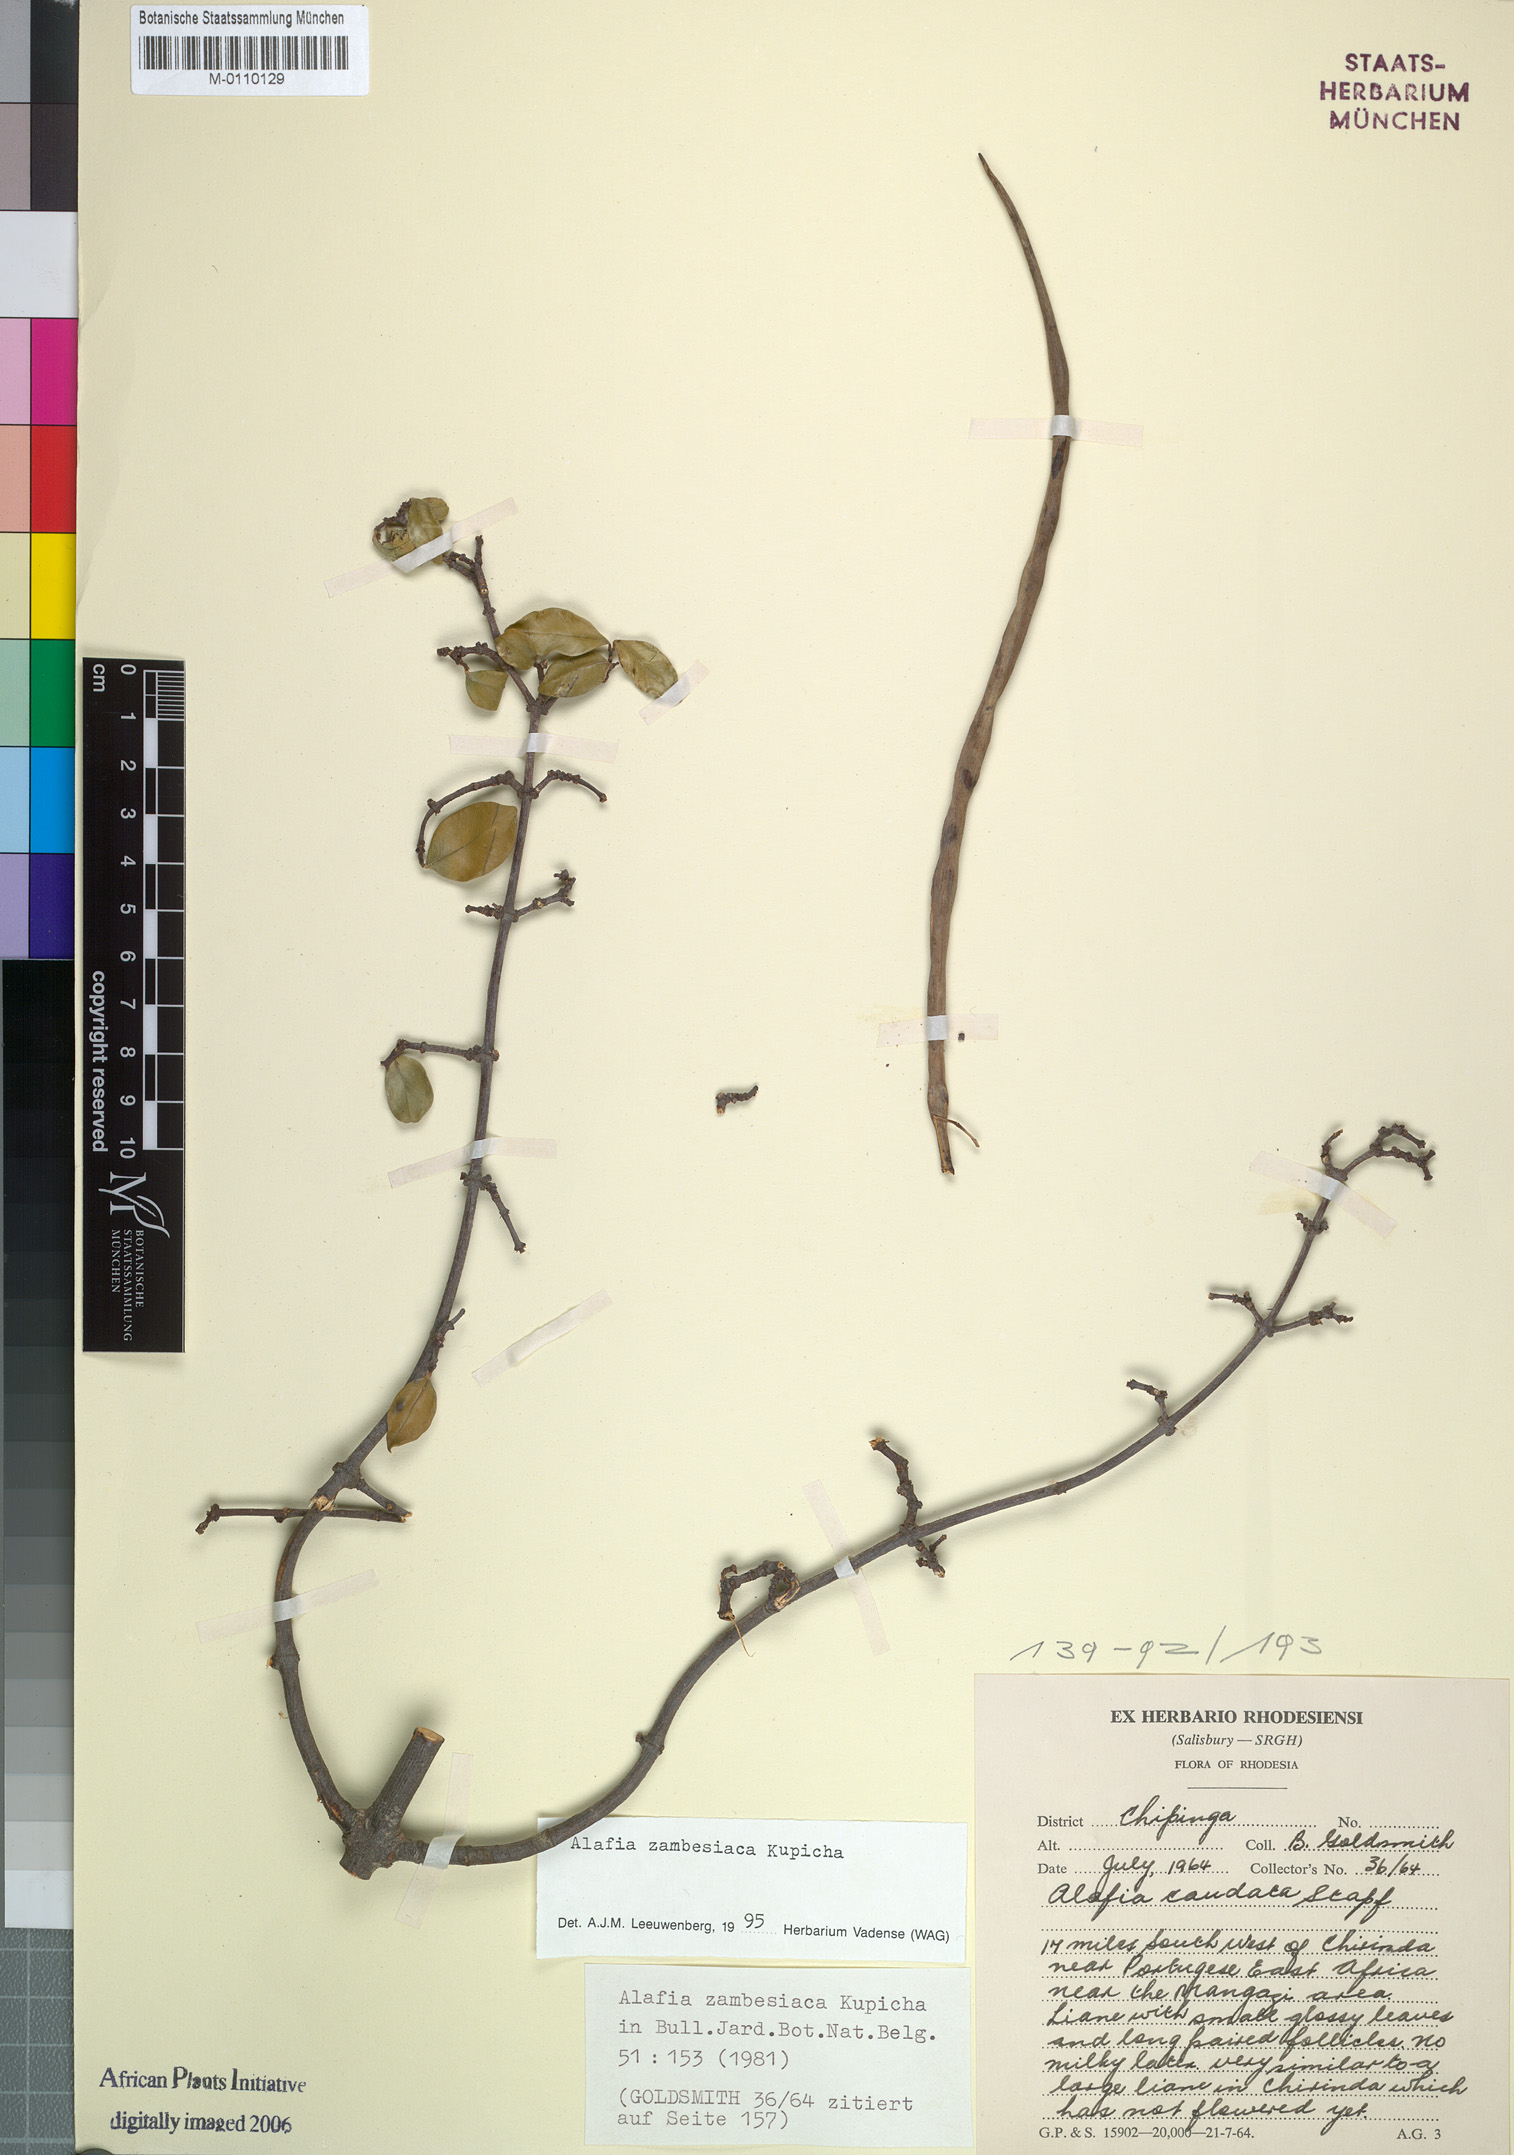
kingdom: Plantae
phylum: Tracheophyta
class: Magnoliopsida
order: Gentianales
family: Apocynaceae
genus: Alafia
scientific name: Alafia zambesiaca
